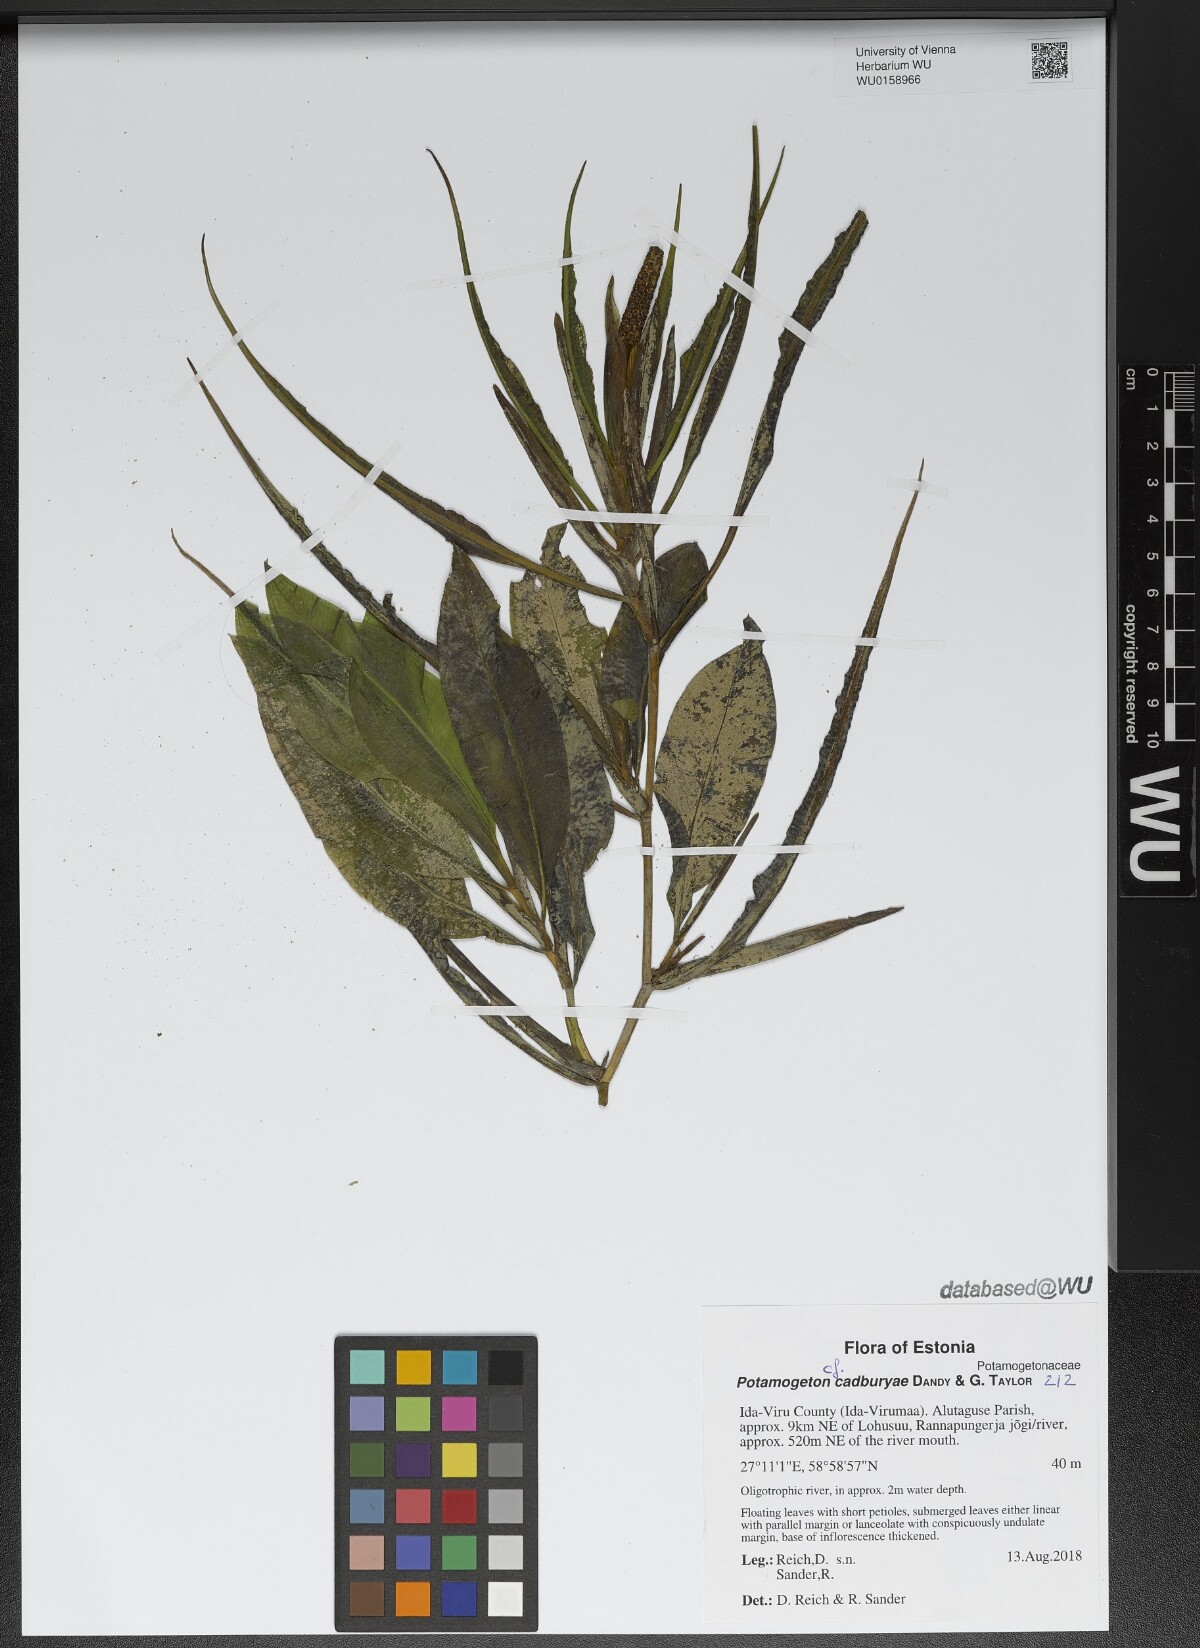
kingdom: Plantae
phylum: Tracheophyta
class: Liliopsida
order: Alismatales
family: Potamogetonaceae
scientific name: Potamogetonaceae
